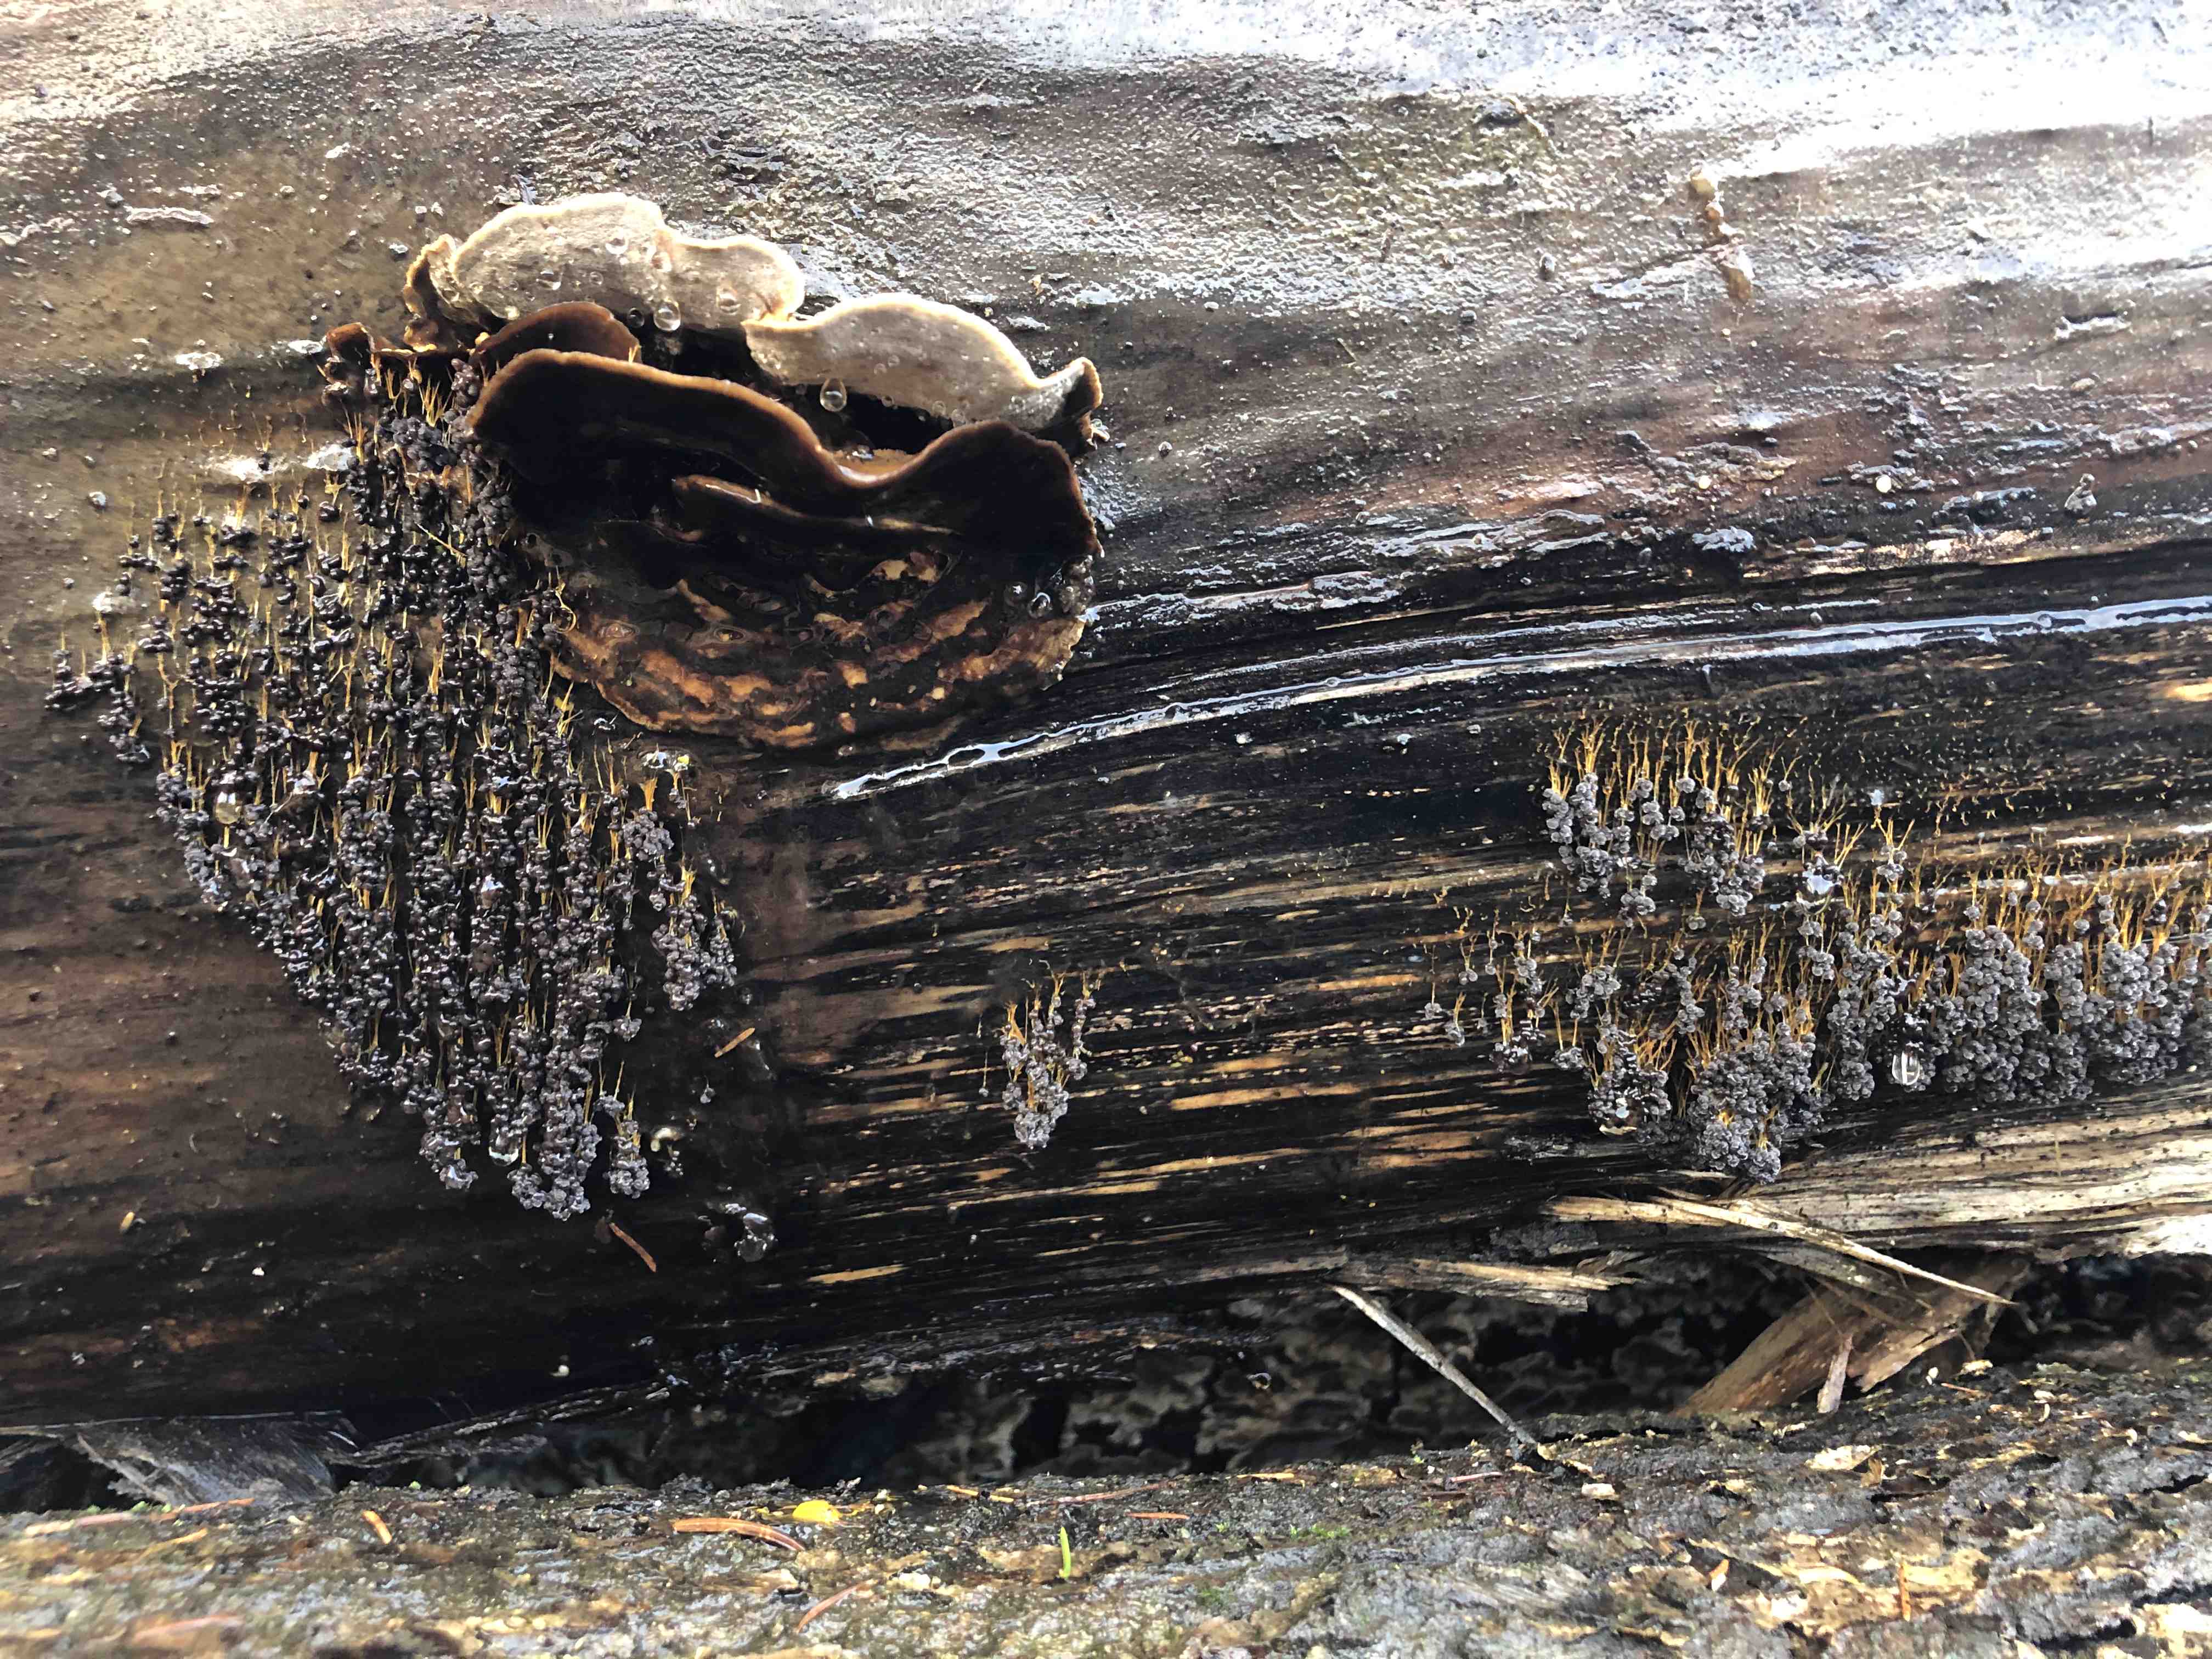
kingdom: Protozoa
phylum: Mycetozoa
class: Myxomycetes
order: Physarales
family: Physaraceae
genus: Badhamia
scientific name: Badhamia utricularis
